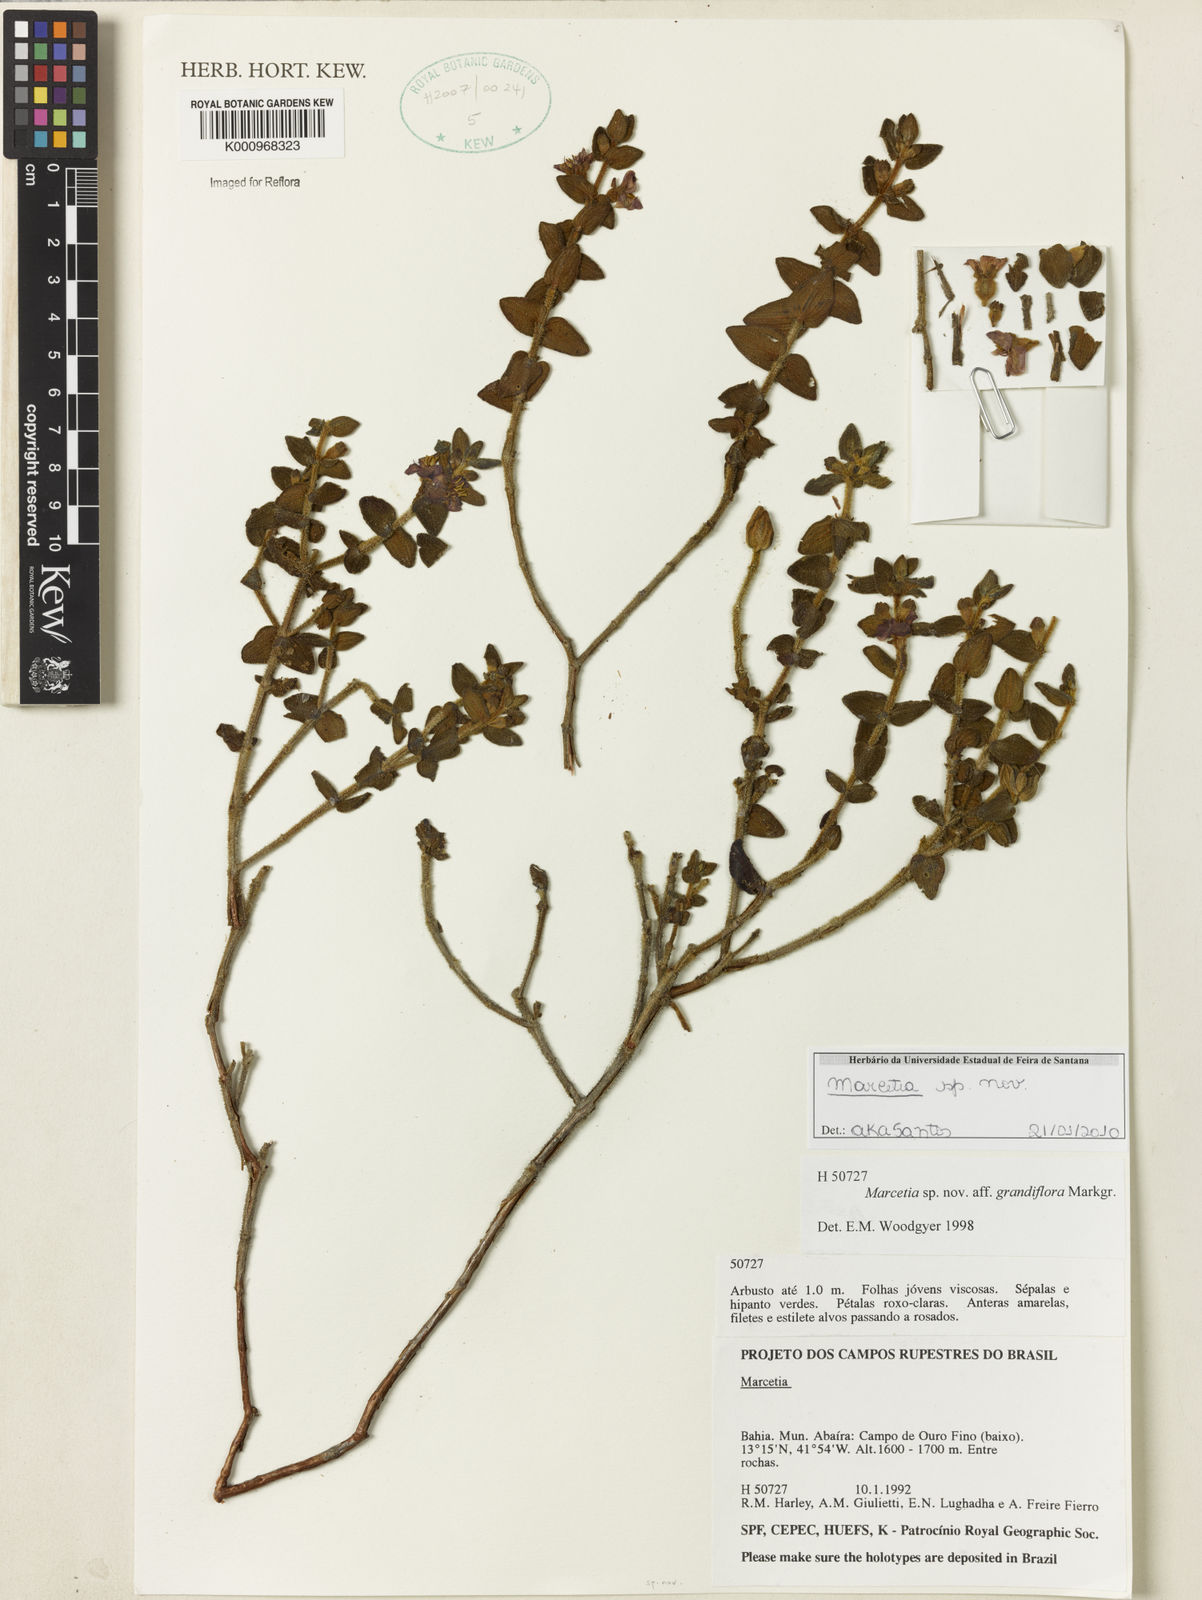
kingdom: Plantae
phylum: Tracheophyta
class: Magnoliopsida
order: Myrtales
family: Melastomataceae
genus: Marcetia
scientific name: Marcetia
